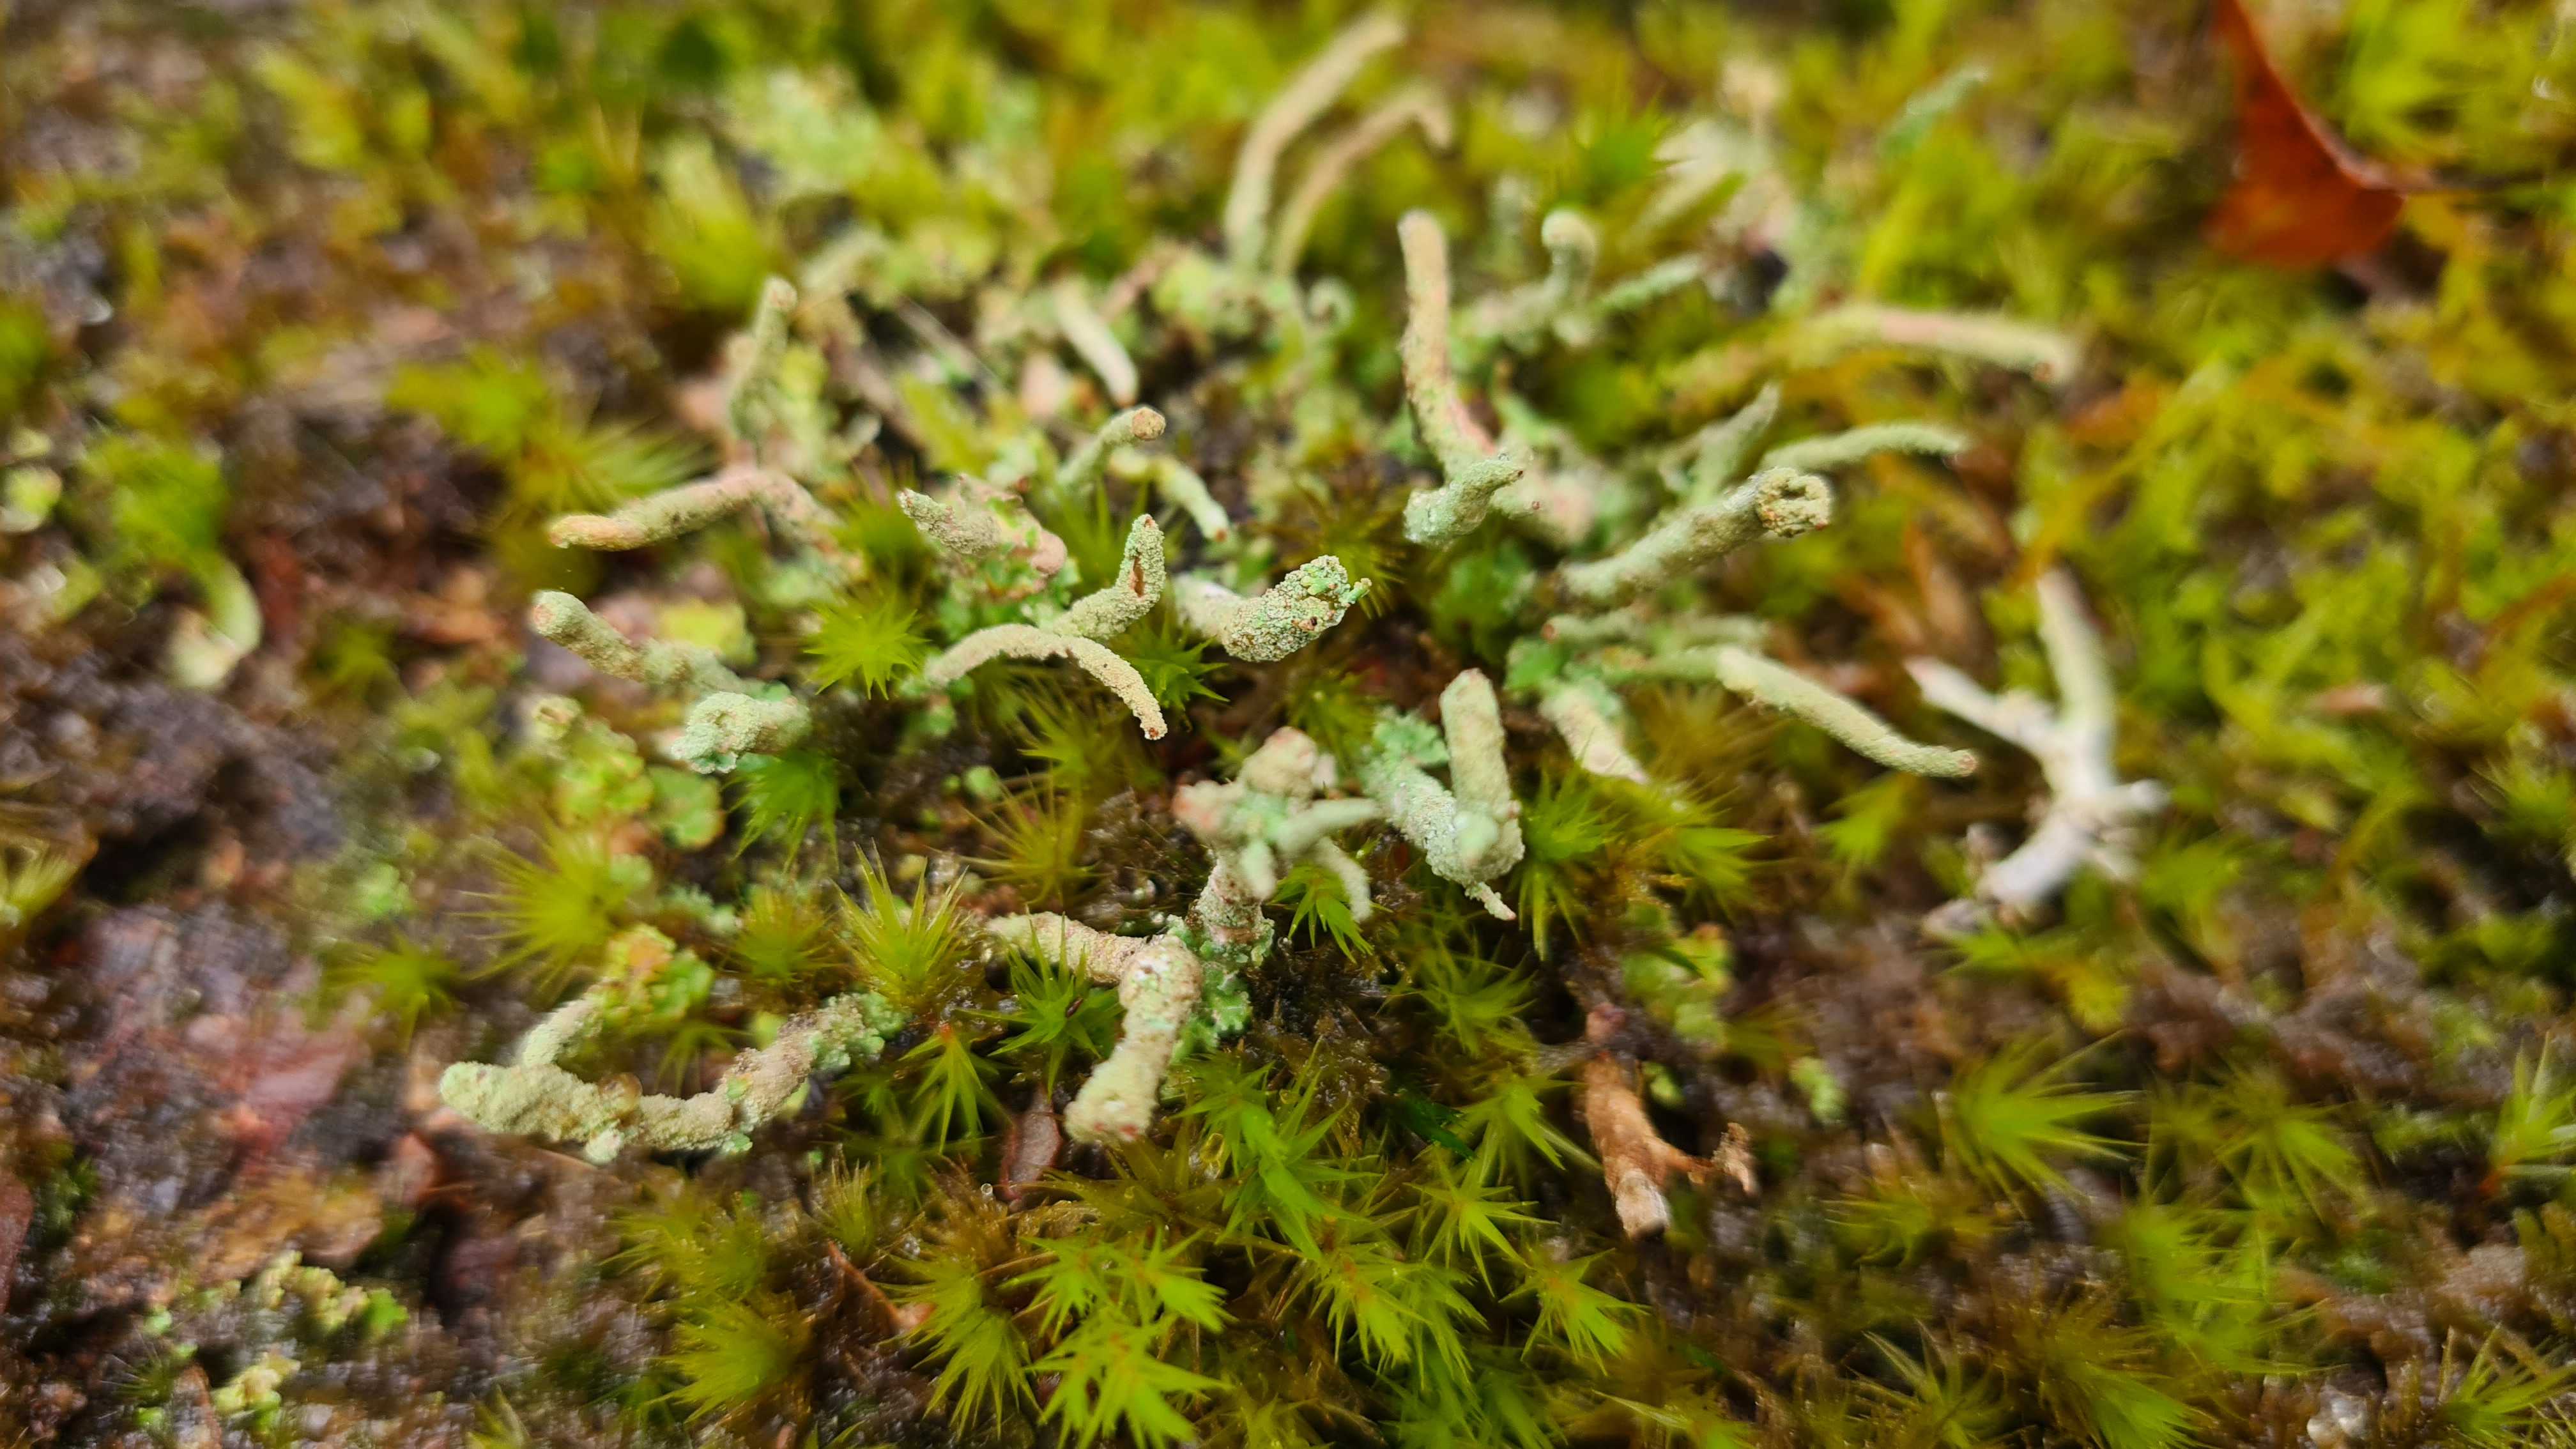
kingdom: Fungi
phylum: Ascomycota
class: Lecanoromycetes
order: Lecanorales
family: Cladoniaceae
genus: Cladonia
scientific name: Cladonia ochrochlora
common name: stød-bægerlav
